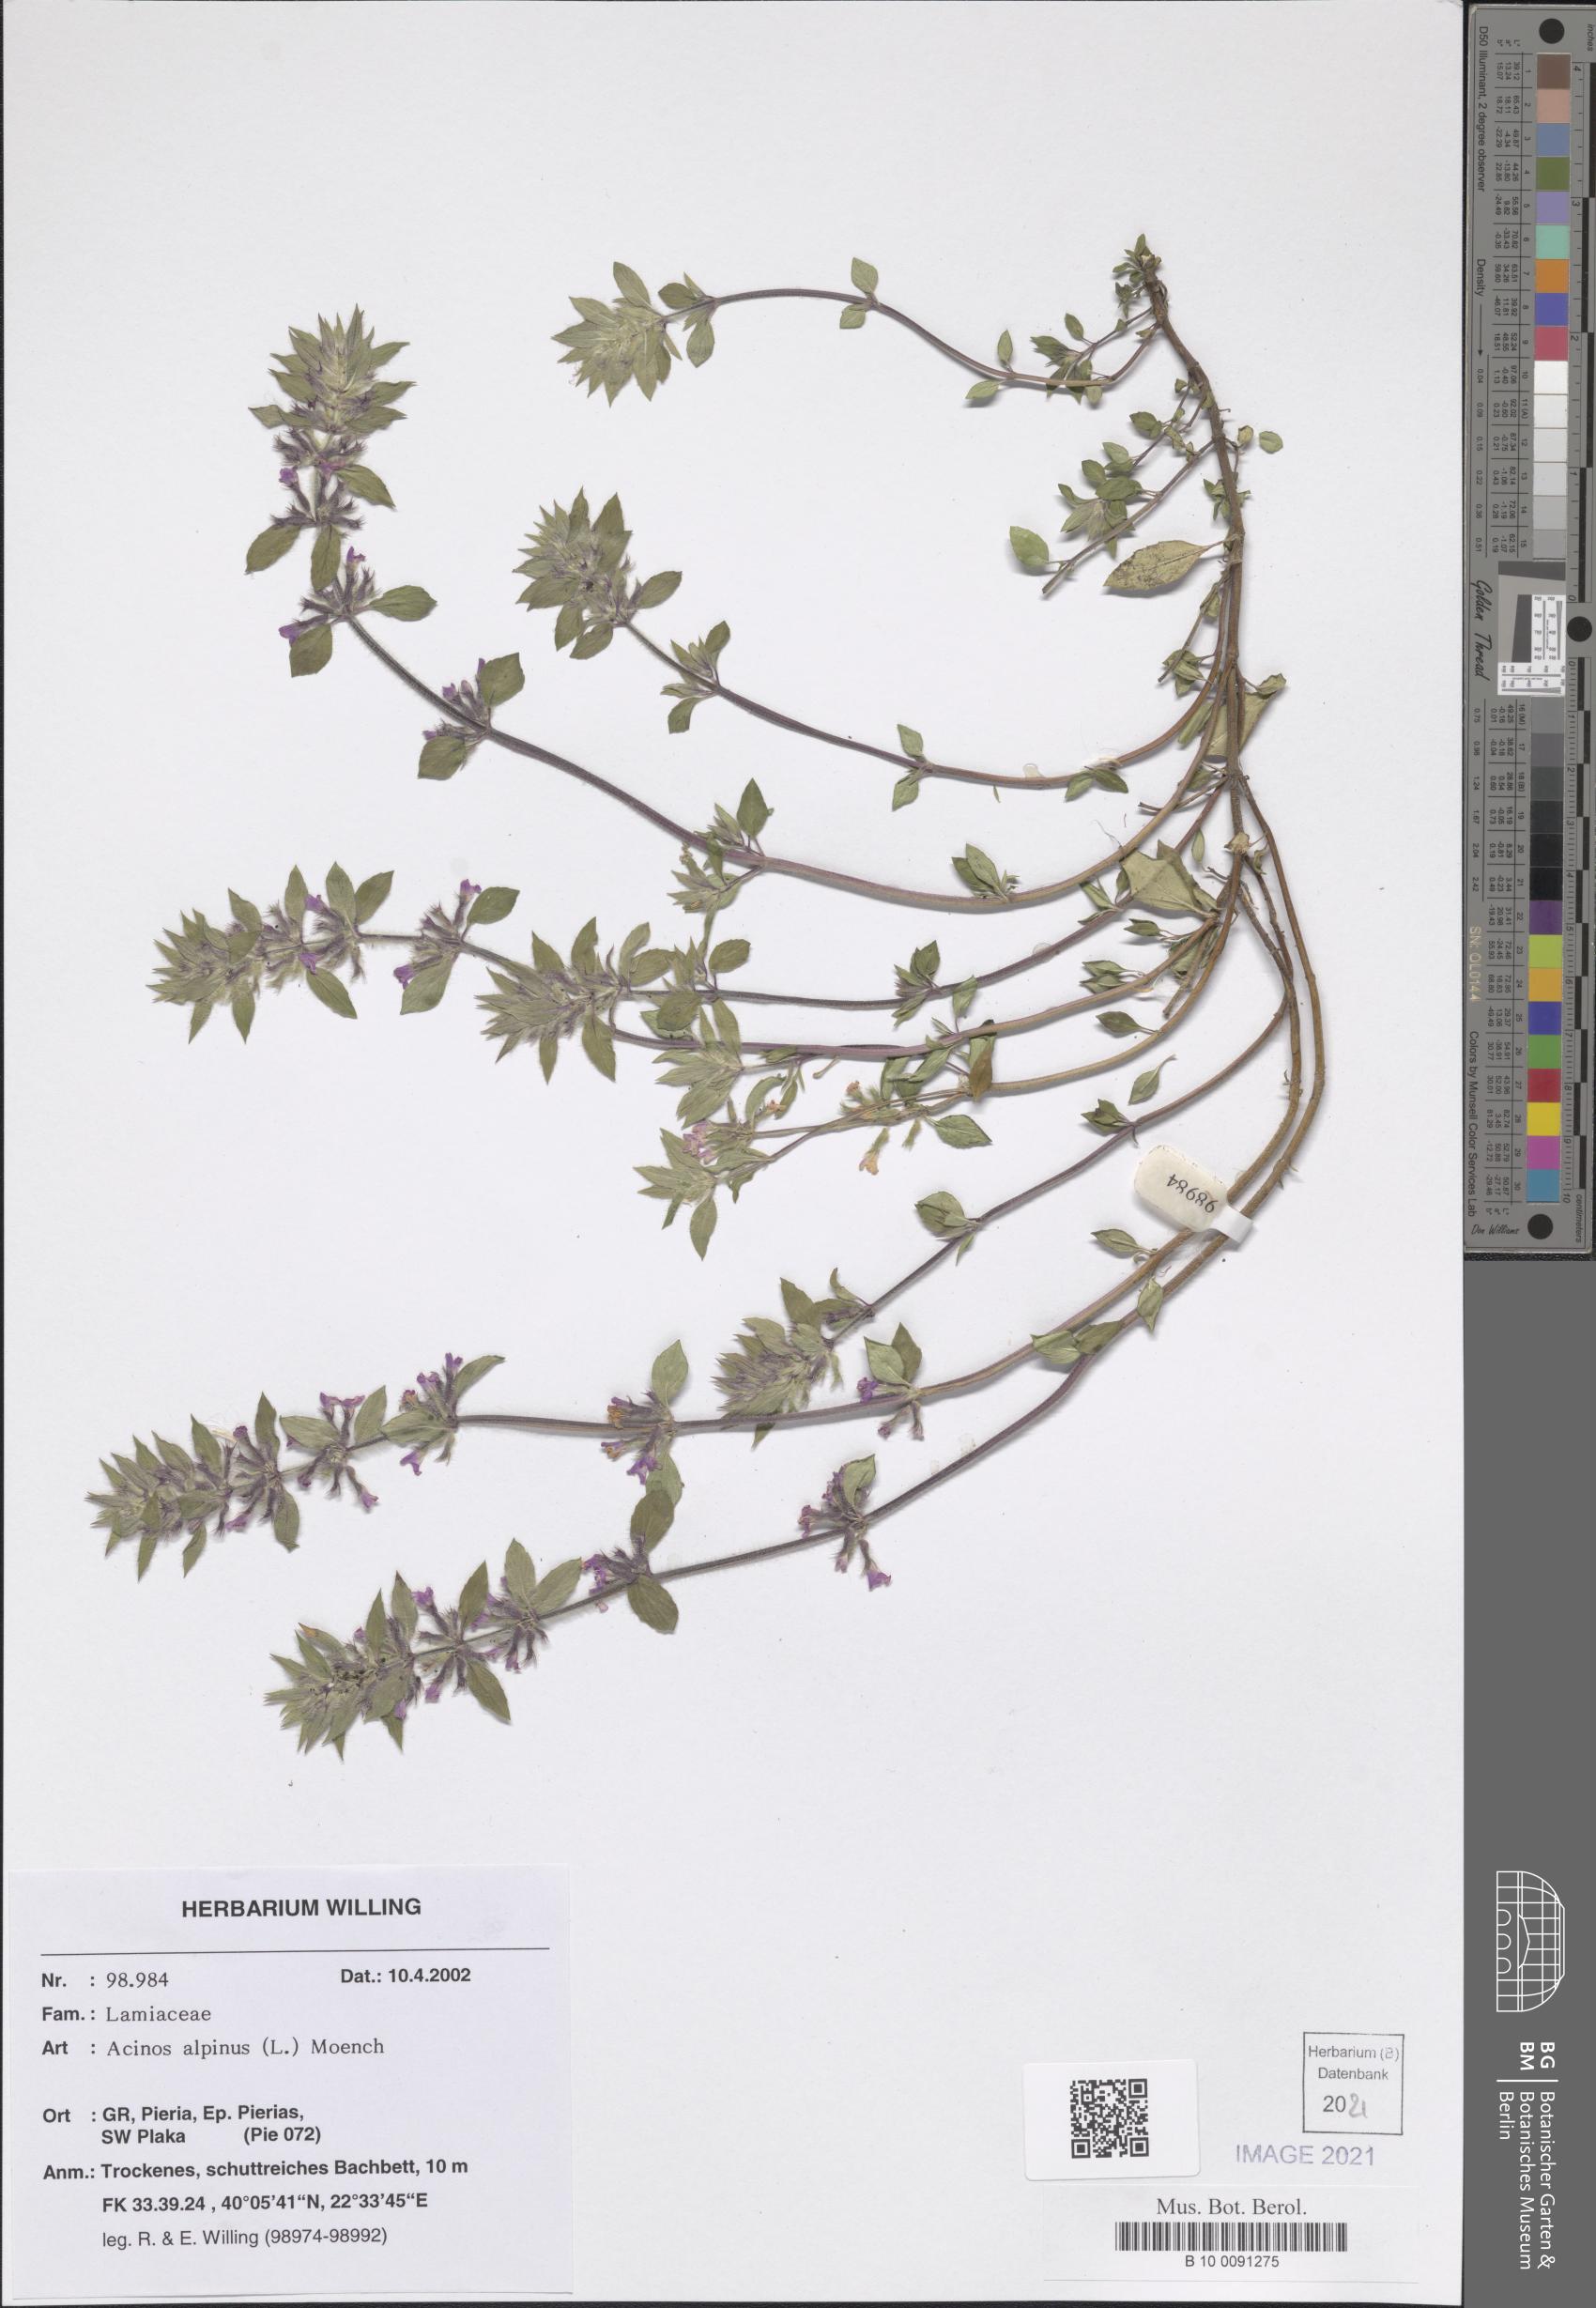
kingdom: Plantae
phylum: Tracheophyta
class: Magnoliopsida
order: Lamiales
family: Lamiaceae
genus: Clinopodium
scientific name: Clinopodium alpinum
